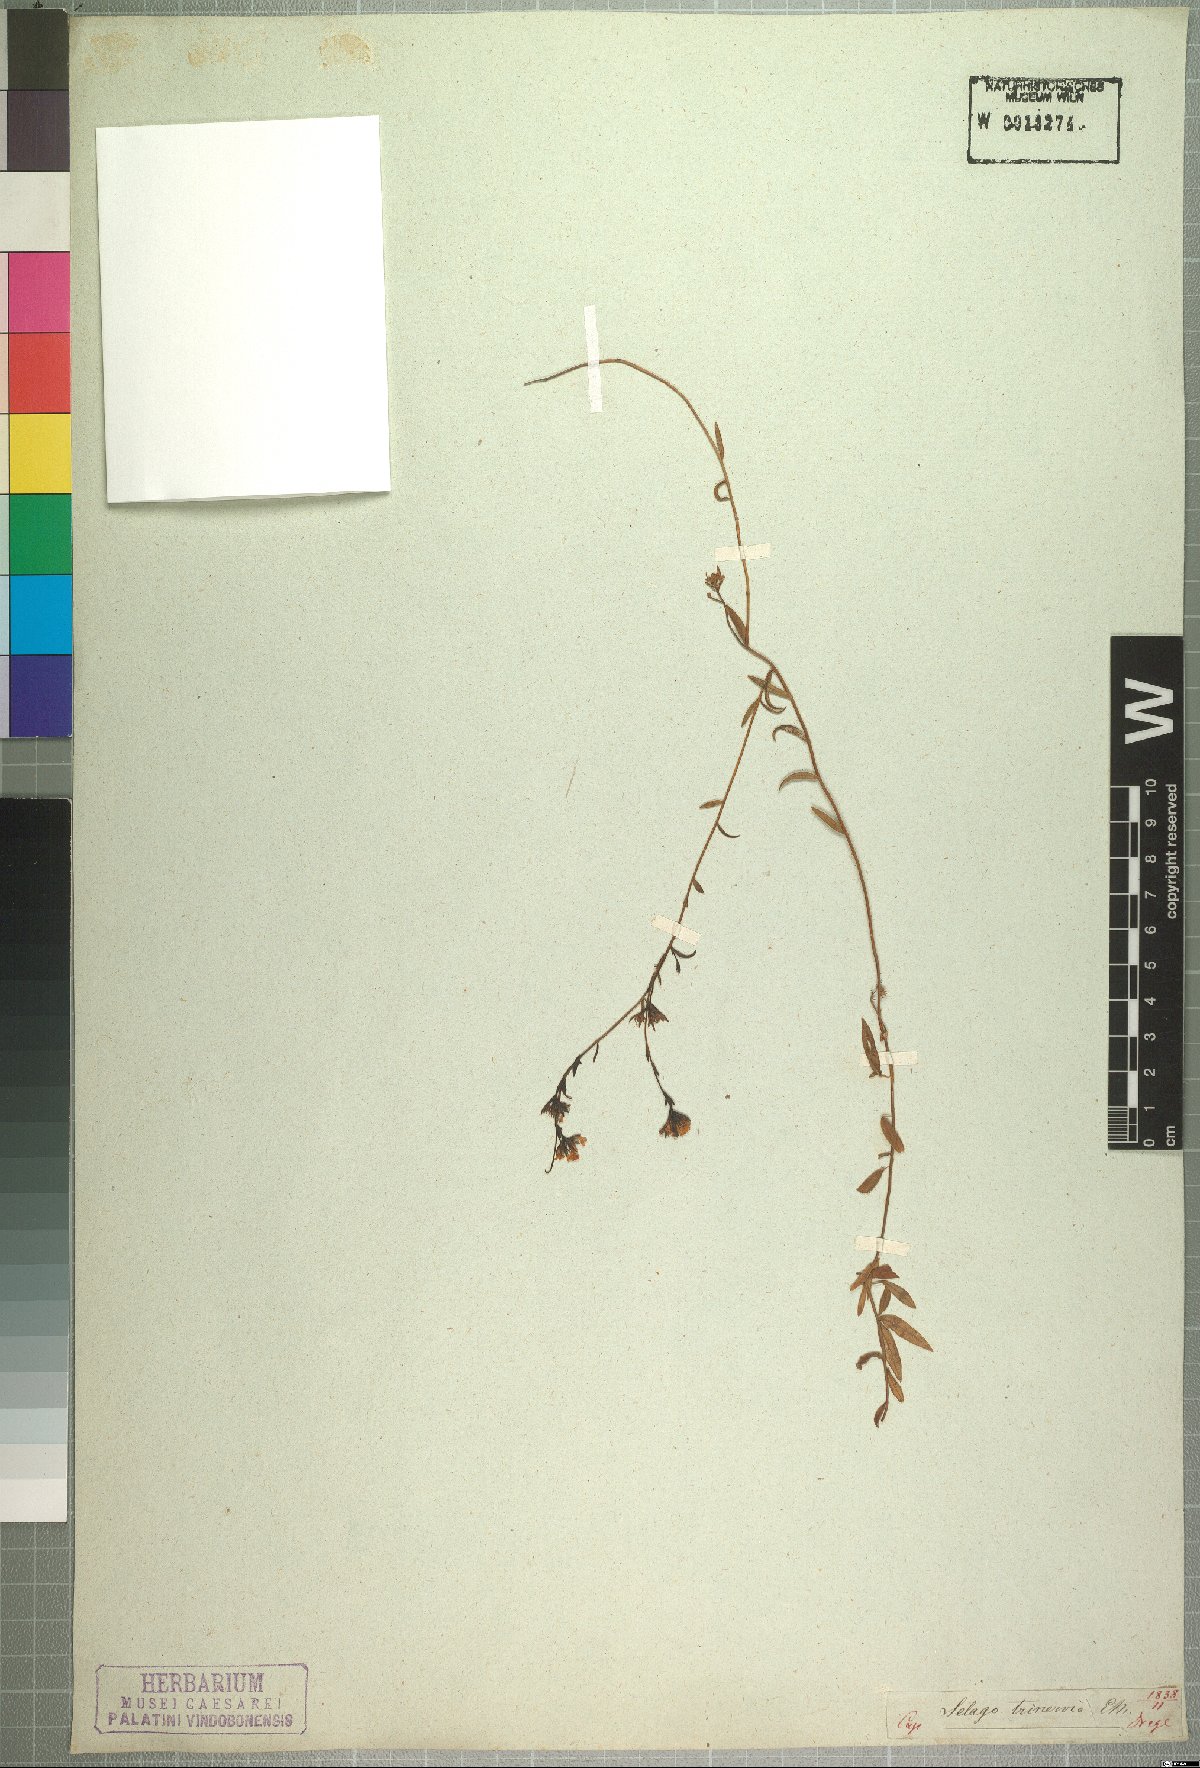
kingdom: Plantae
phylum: Tracheophyta
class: Magnoliopsida
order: Lamiales
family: Scrophulariaceae
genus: Selago
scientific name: Selago trinervia
